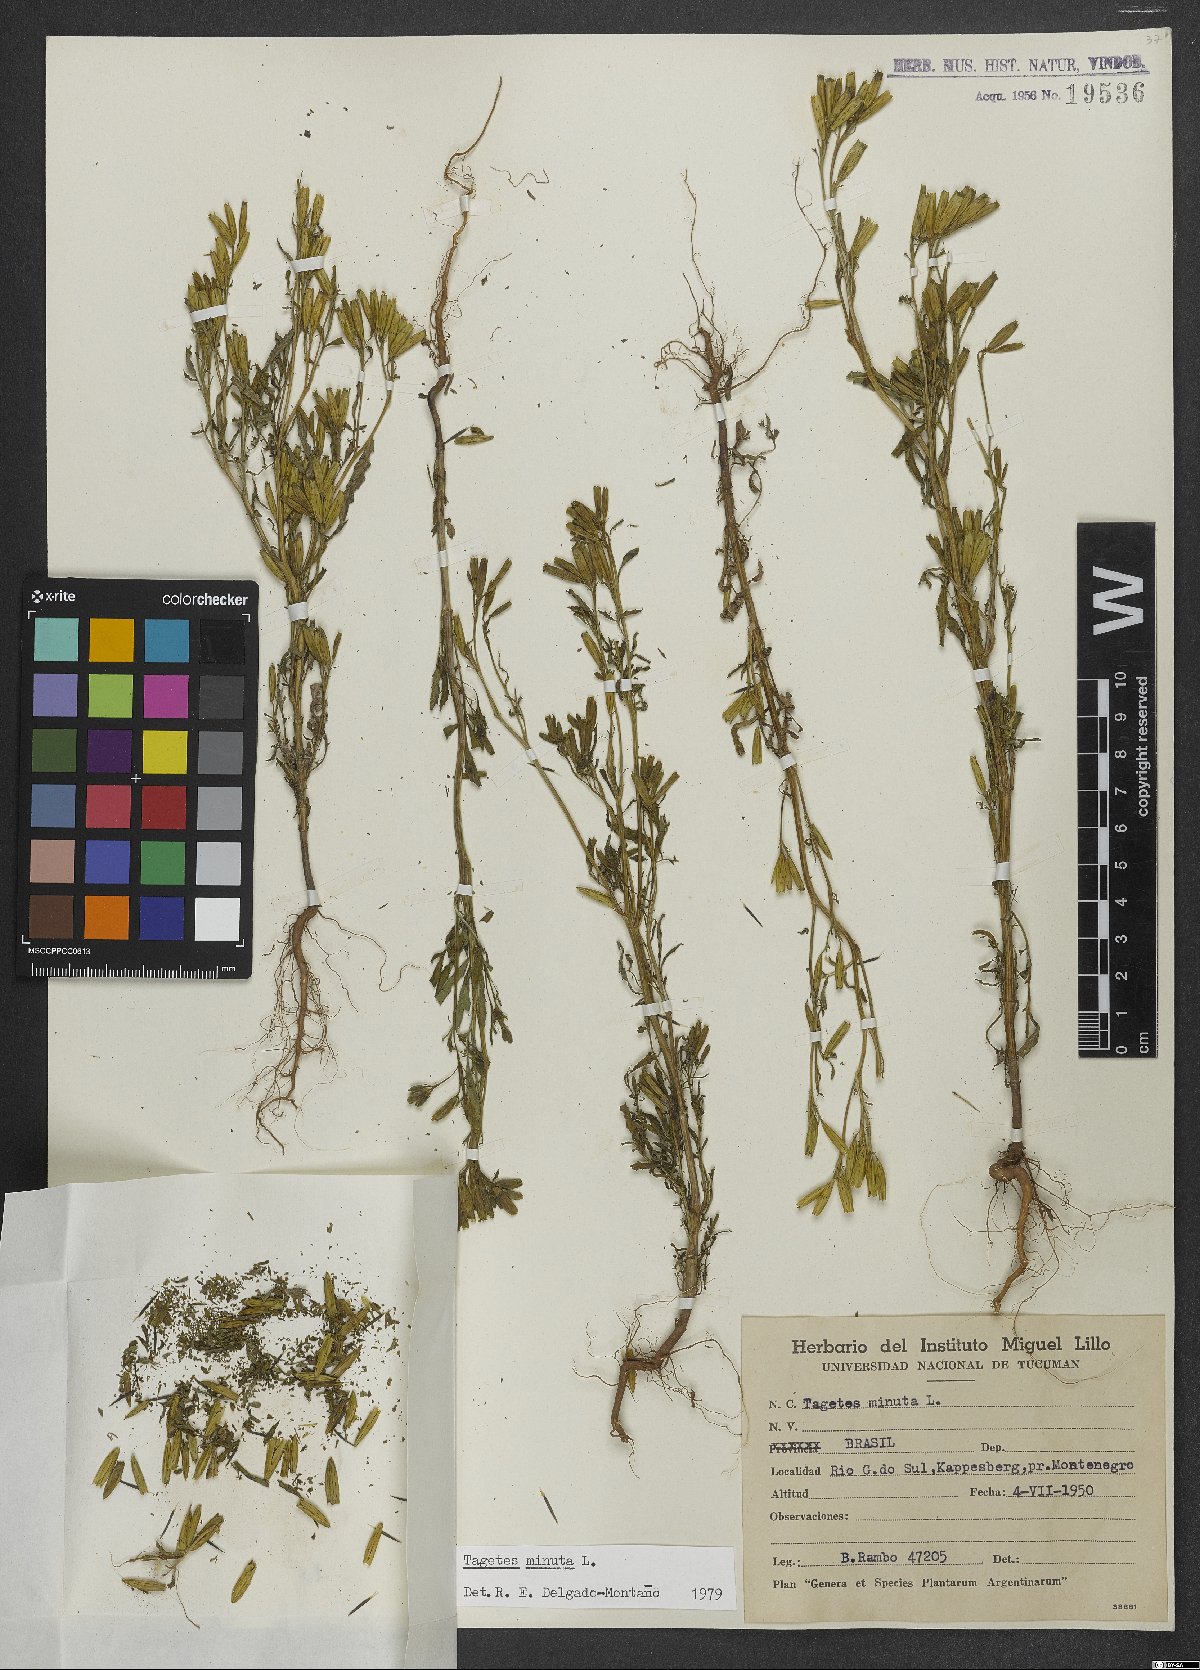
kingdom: Plantae
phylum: Tracheophyta
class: Magnoliopsida
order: Asterales
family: Asteraceae
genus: Tagetes
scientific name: Tagetes minuta
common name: Muster john henry
